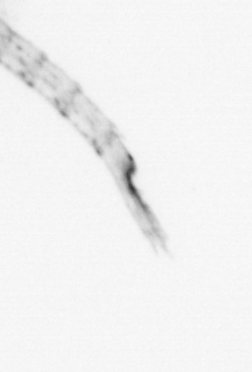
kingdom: Animalia
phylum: Arthropoda
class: Malacostraca
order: Decapoda
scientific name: Decapoda
